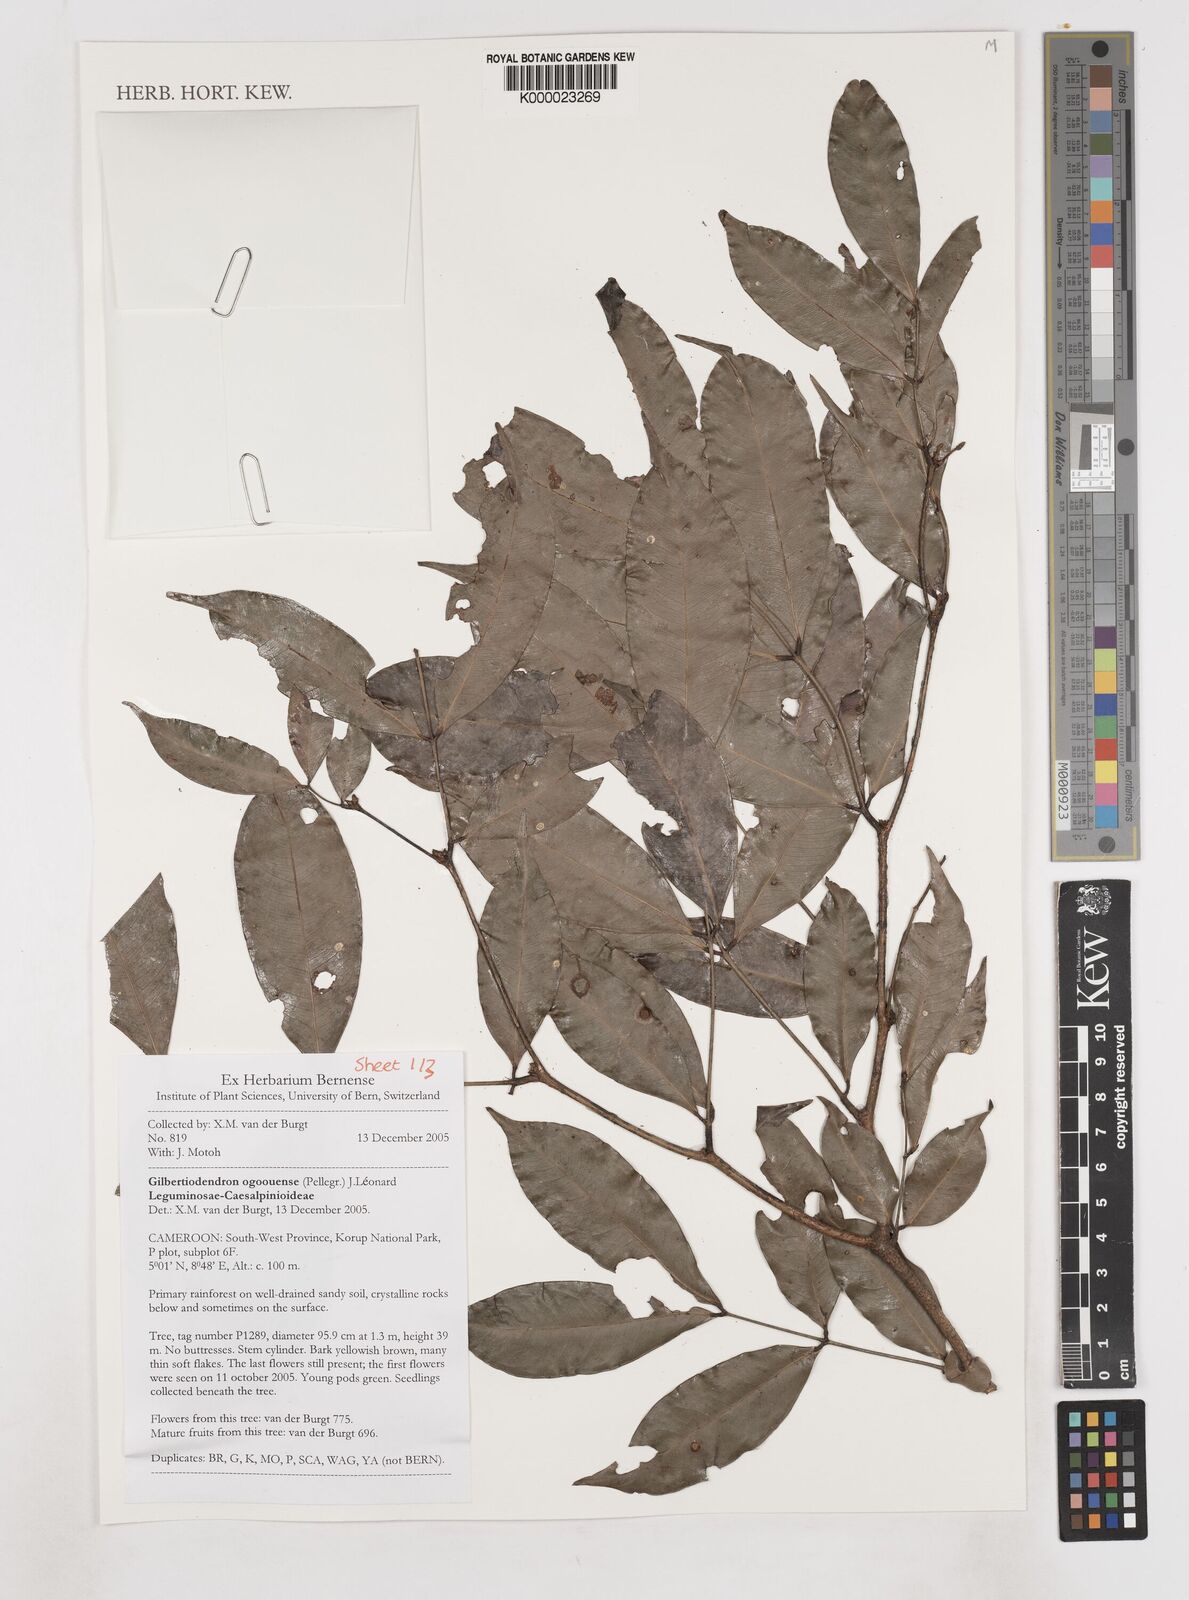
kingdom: Plantae
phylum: Tracheophyta
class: Magnoliopsida
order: Fabales
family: Fabaceae
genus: Gilbertiodendron
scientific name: Gilbertiodendron
